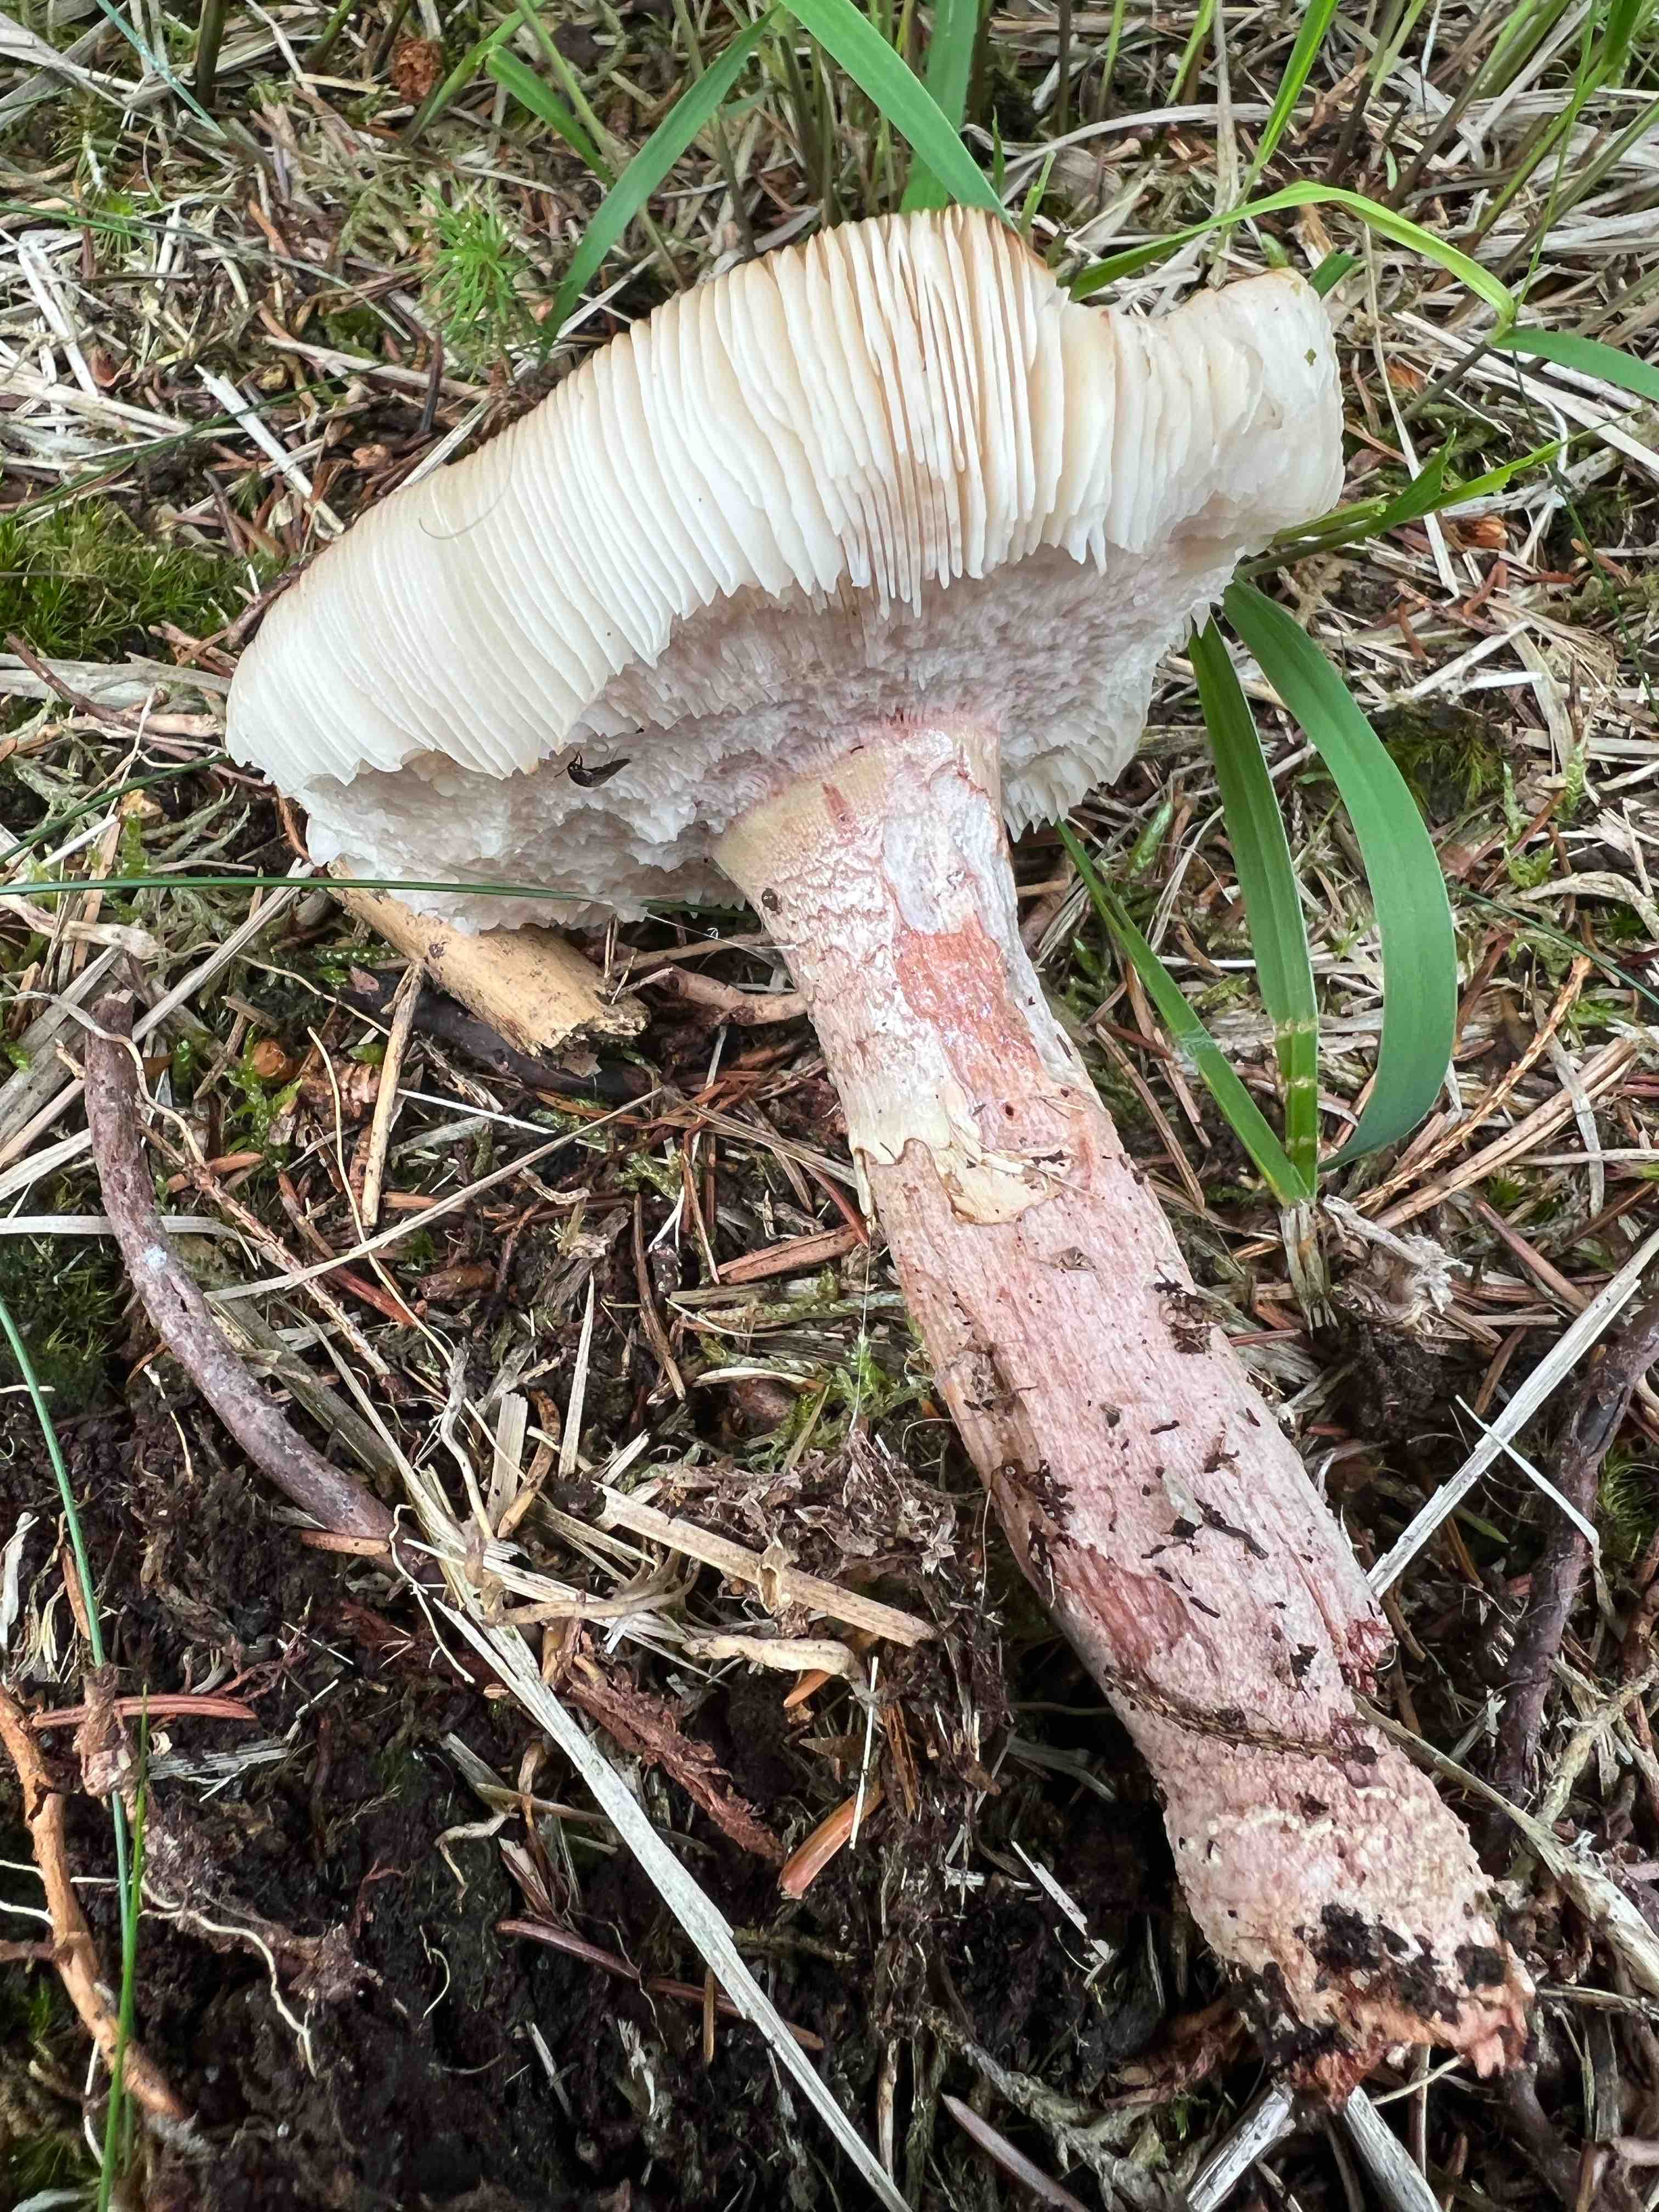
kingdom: Fungi
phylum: Basidiomycota
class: Agaricomycetes
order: Agaricales
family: Amanitaceae
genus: Amanita
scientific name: Amanita rubescens
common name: rødmende fluesvamp
